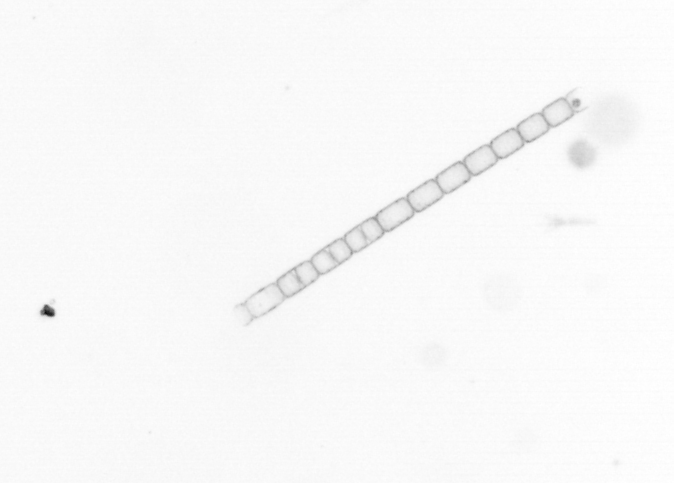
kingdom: Chromista
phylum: Ochrophyta
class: Bacillariophyceae
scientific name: Bacillariophyceae
